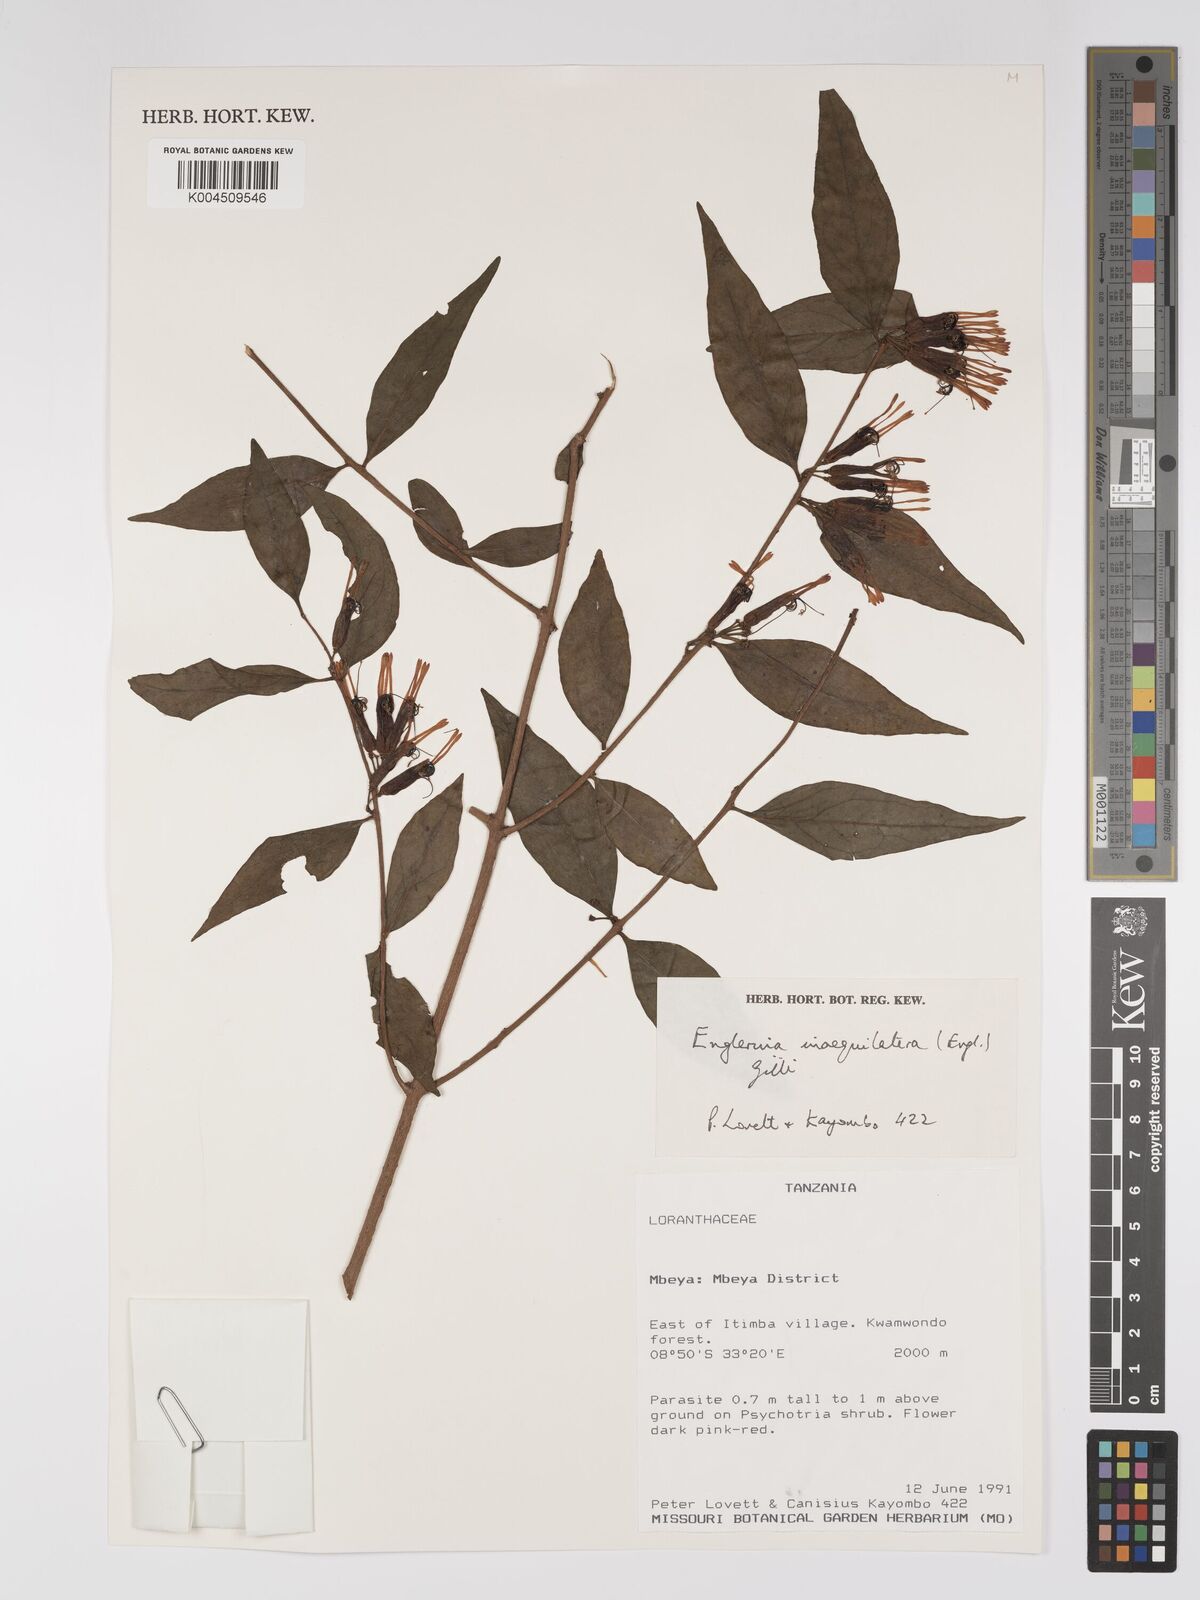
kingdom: Plantae
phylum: Tracheophyta
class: Magnoliopsida
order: Santalales
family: Loranthaceae
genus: Englerina
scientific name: Englerina inaequilatera
